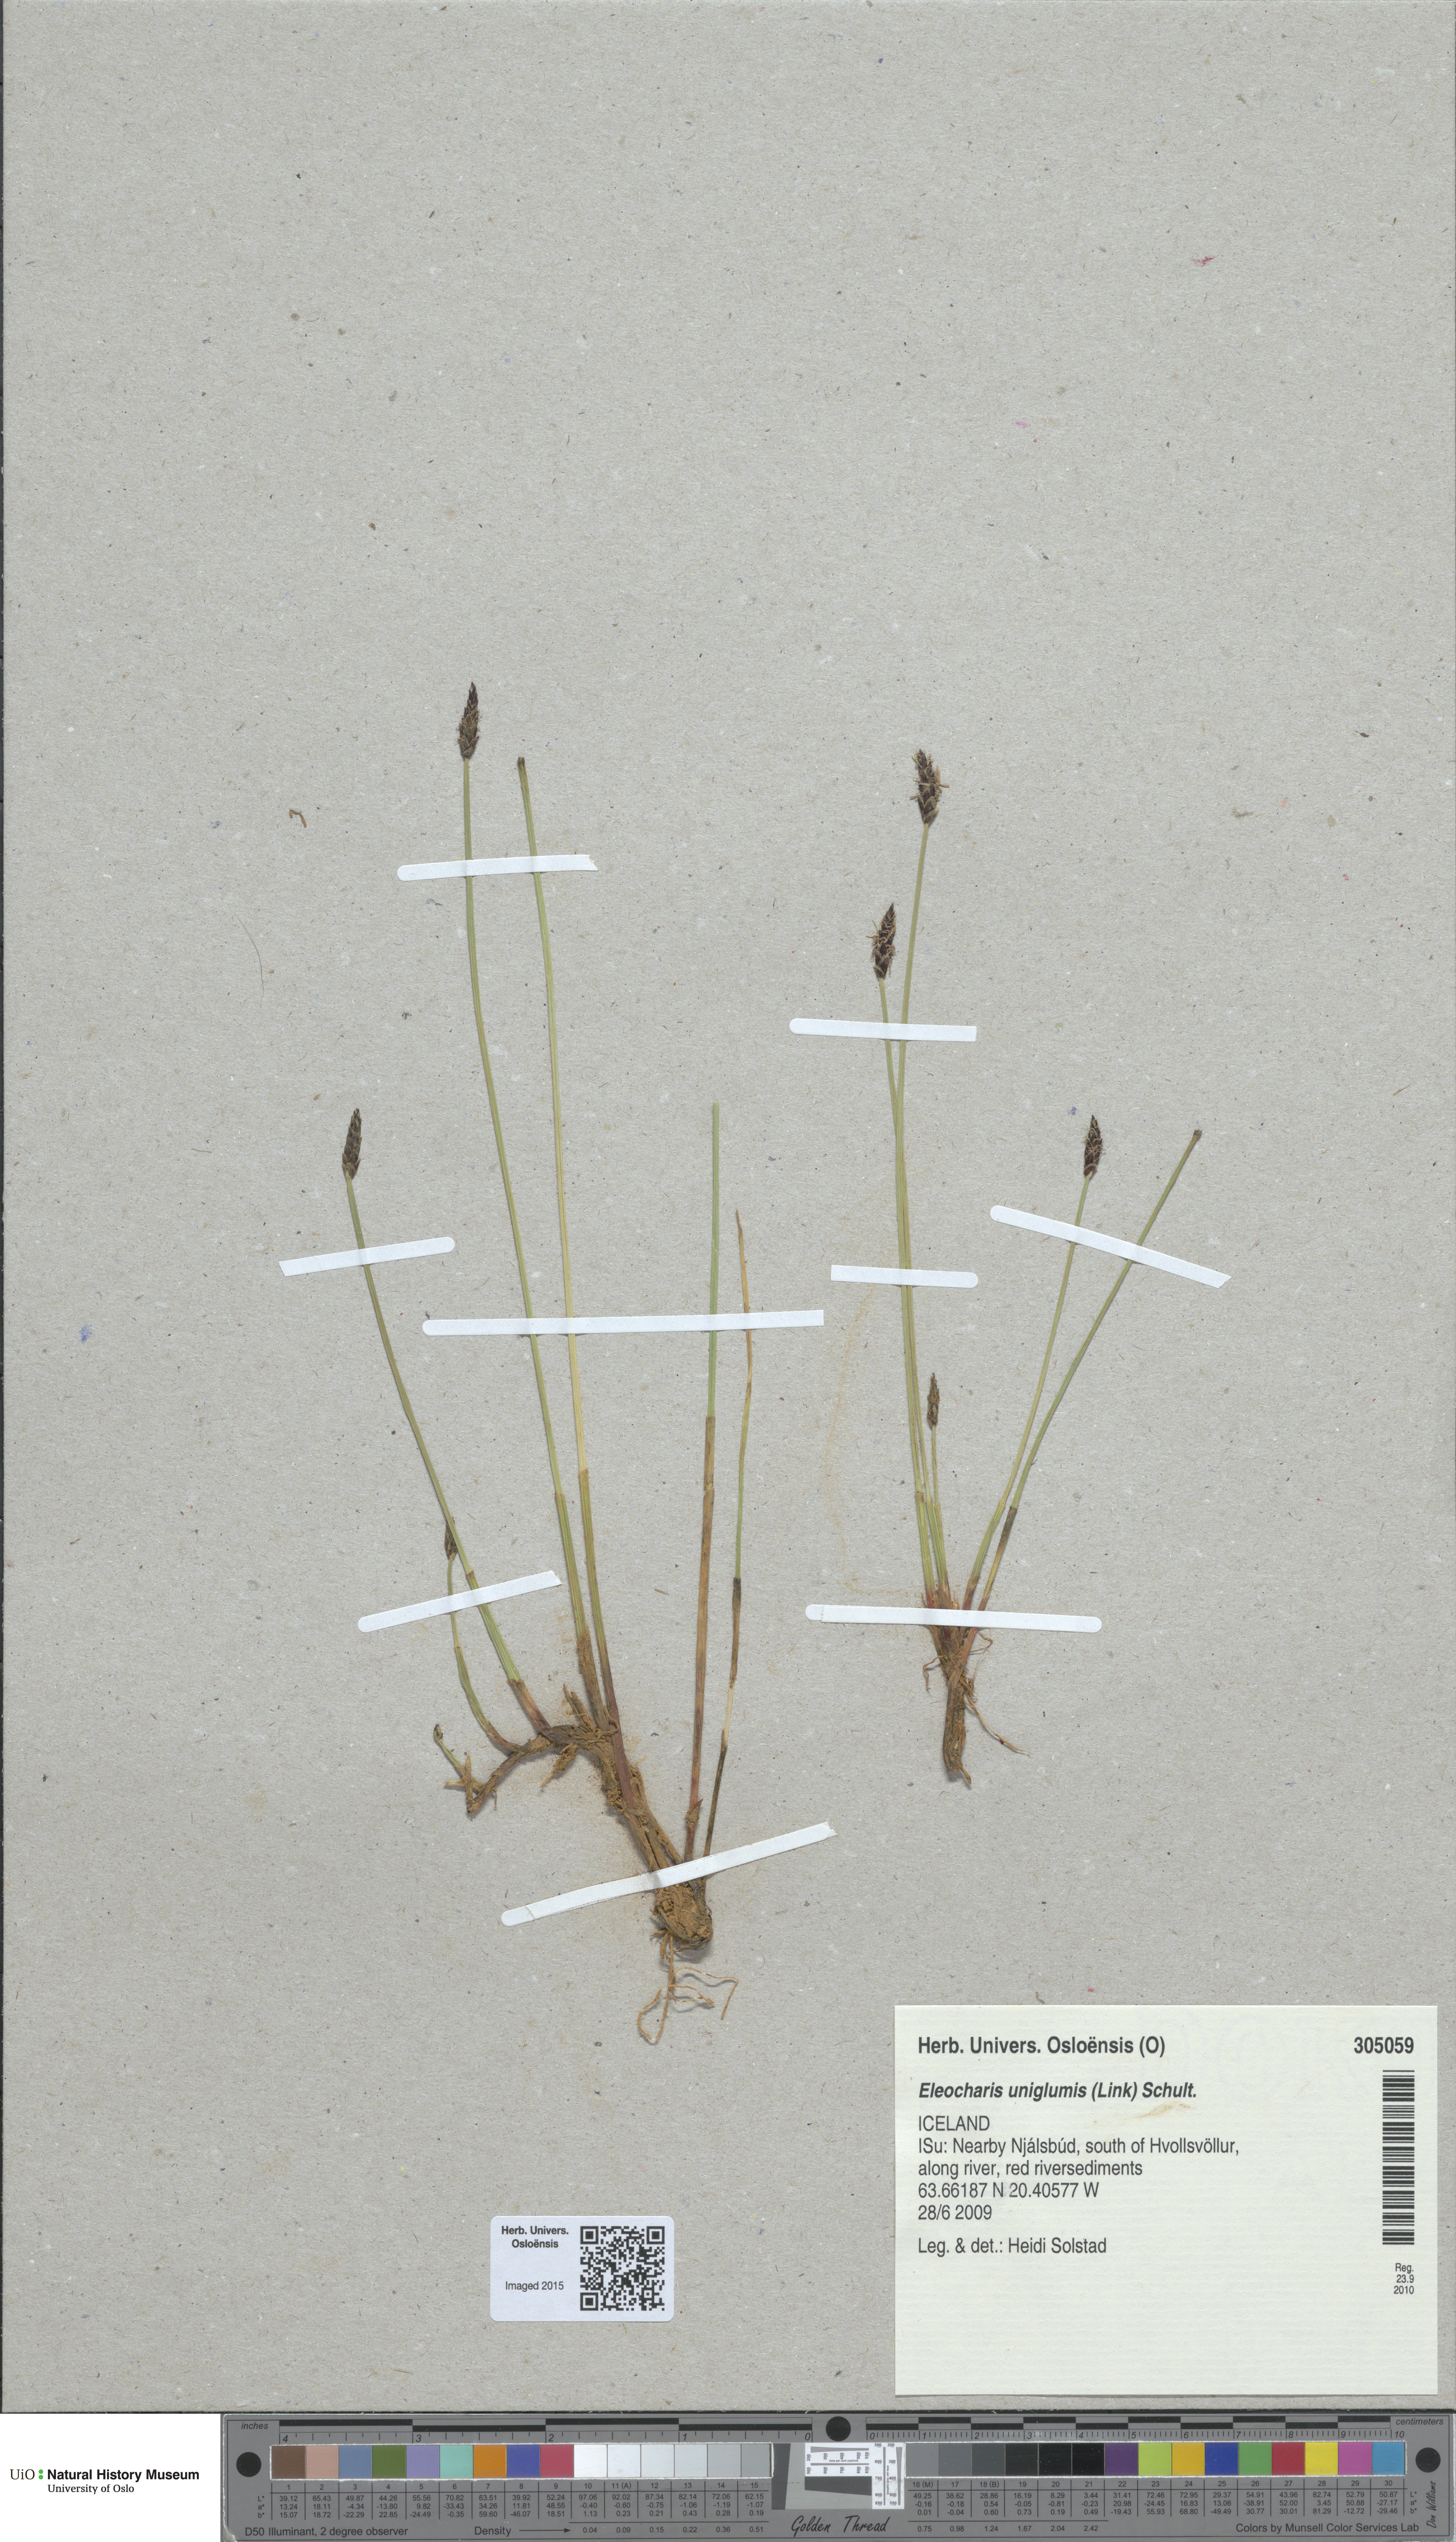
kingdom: Plantae
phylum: Tracheophyta
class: Liliopsida
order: Poales
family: Cyperaceae
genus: Eleocharis
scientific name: Eleocharis uniglumis
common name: Slender spike-rush
